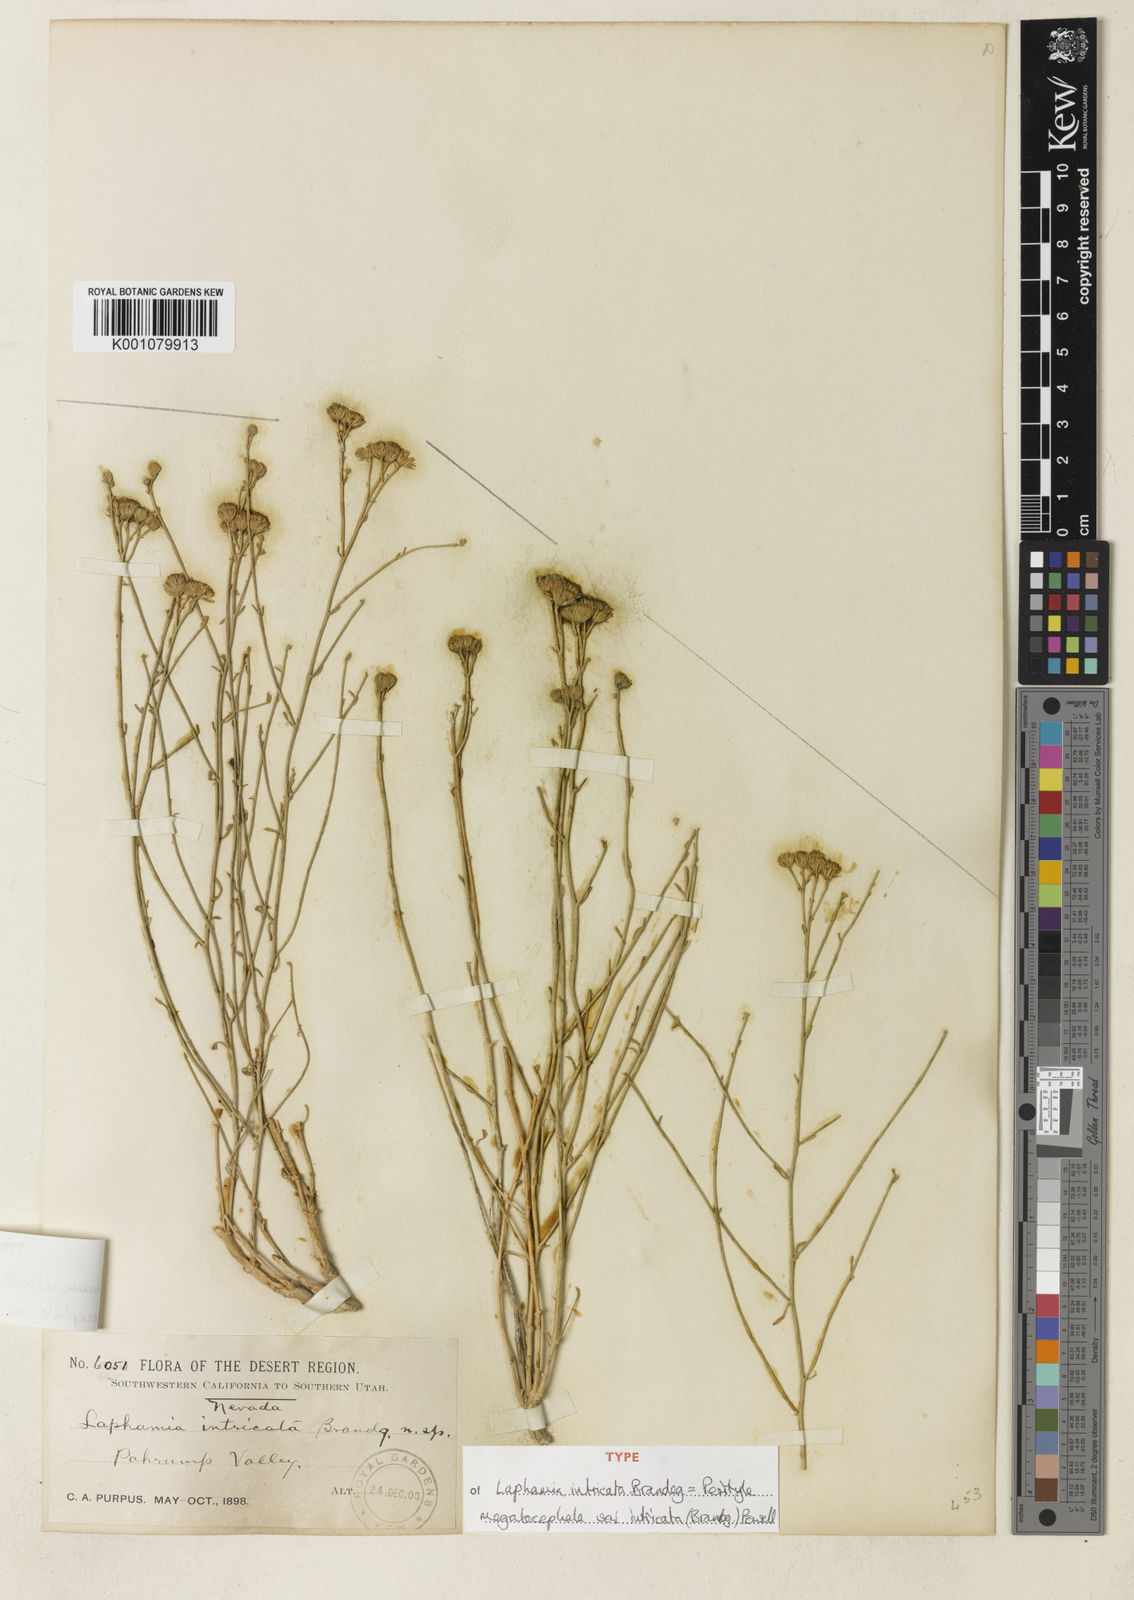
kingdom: Plantae
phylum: Tracheophyta
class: Magnoliopsida
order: Asterales
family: Asteraceae
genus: Laphamia
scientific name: Laphamia intricata
